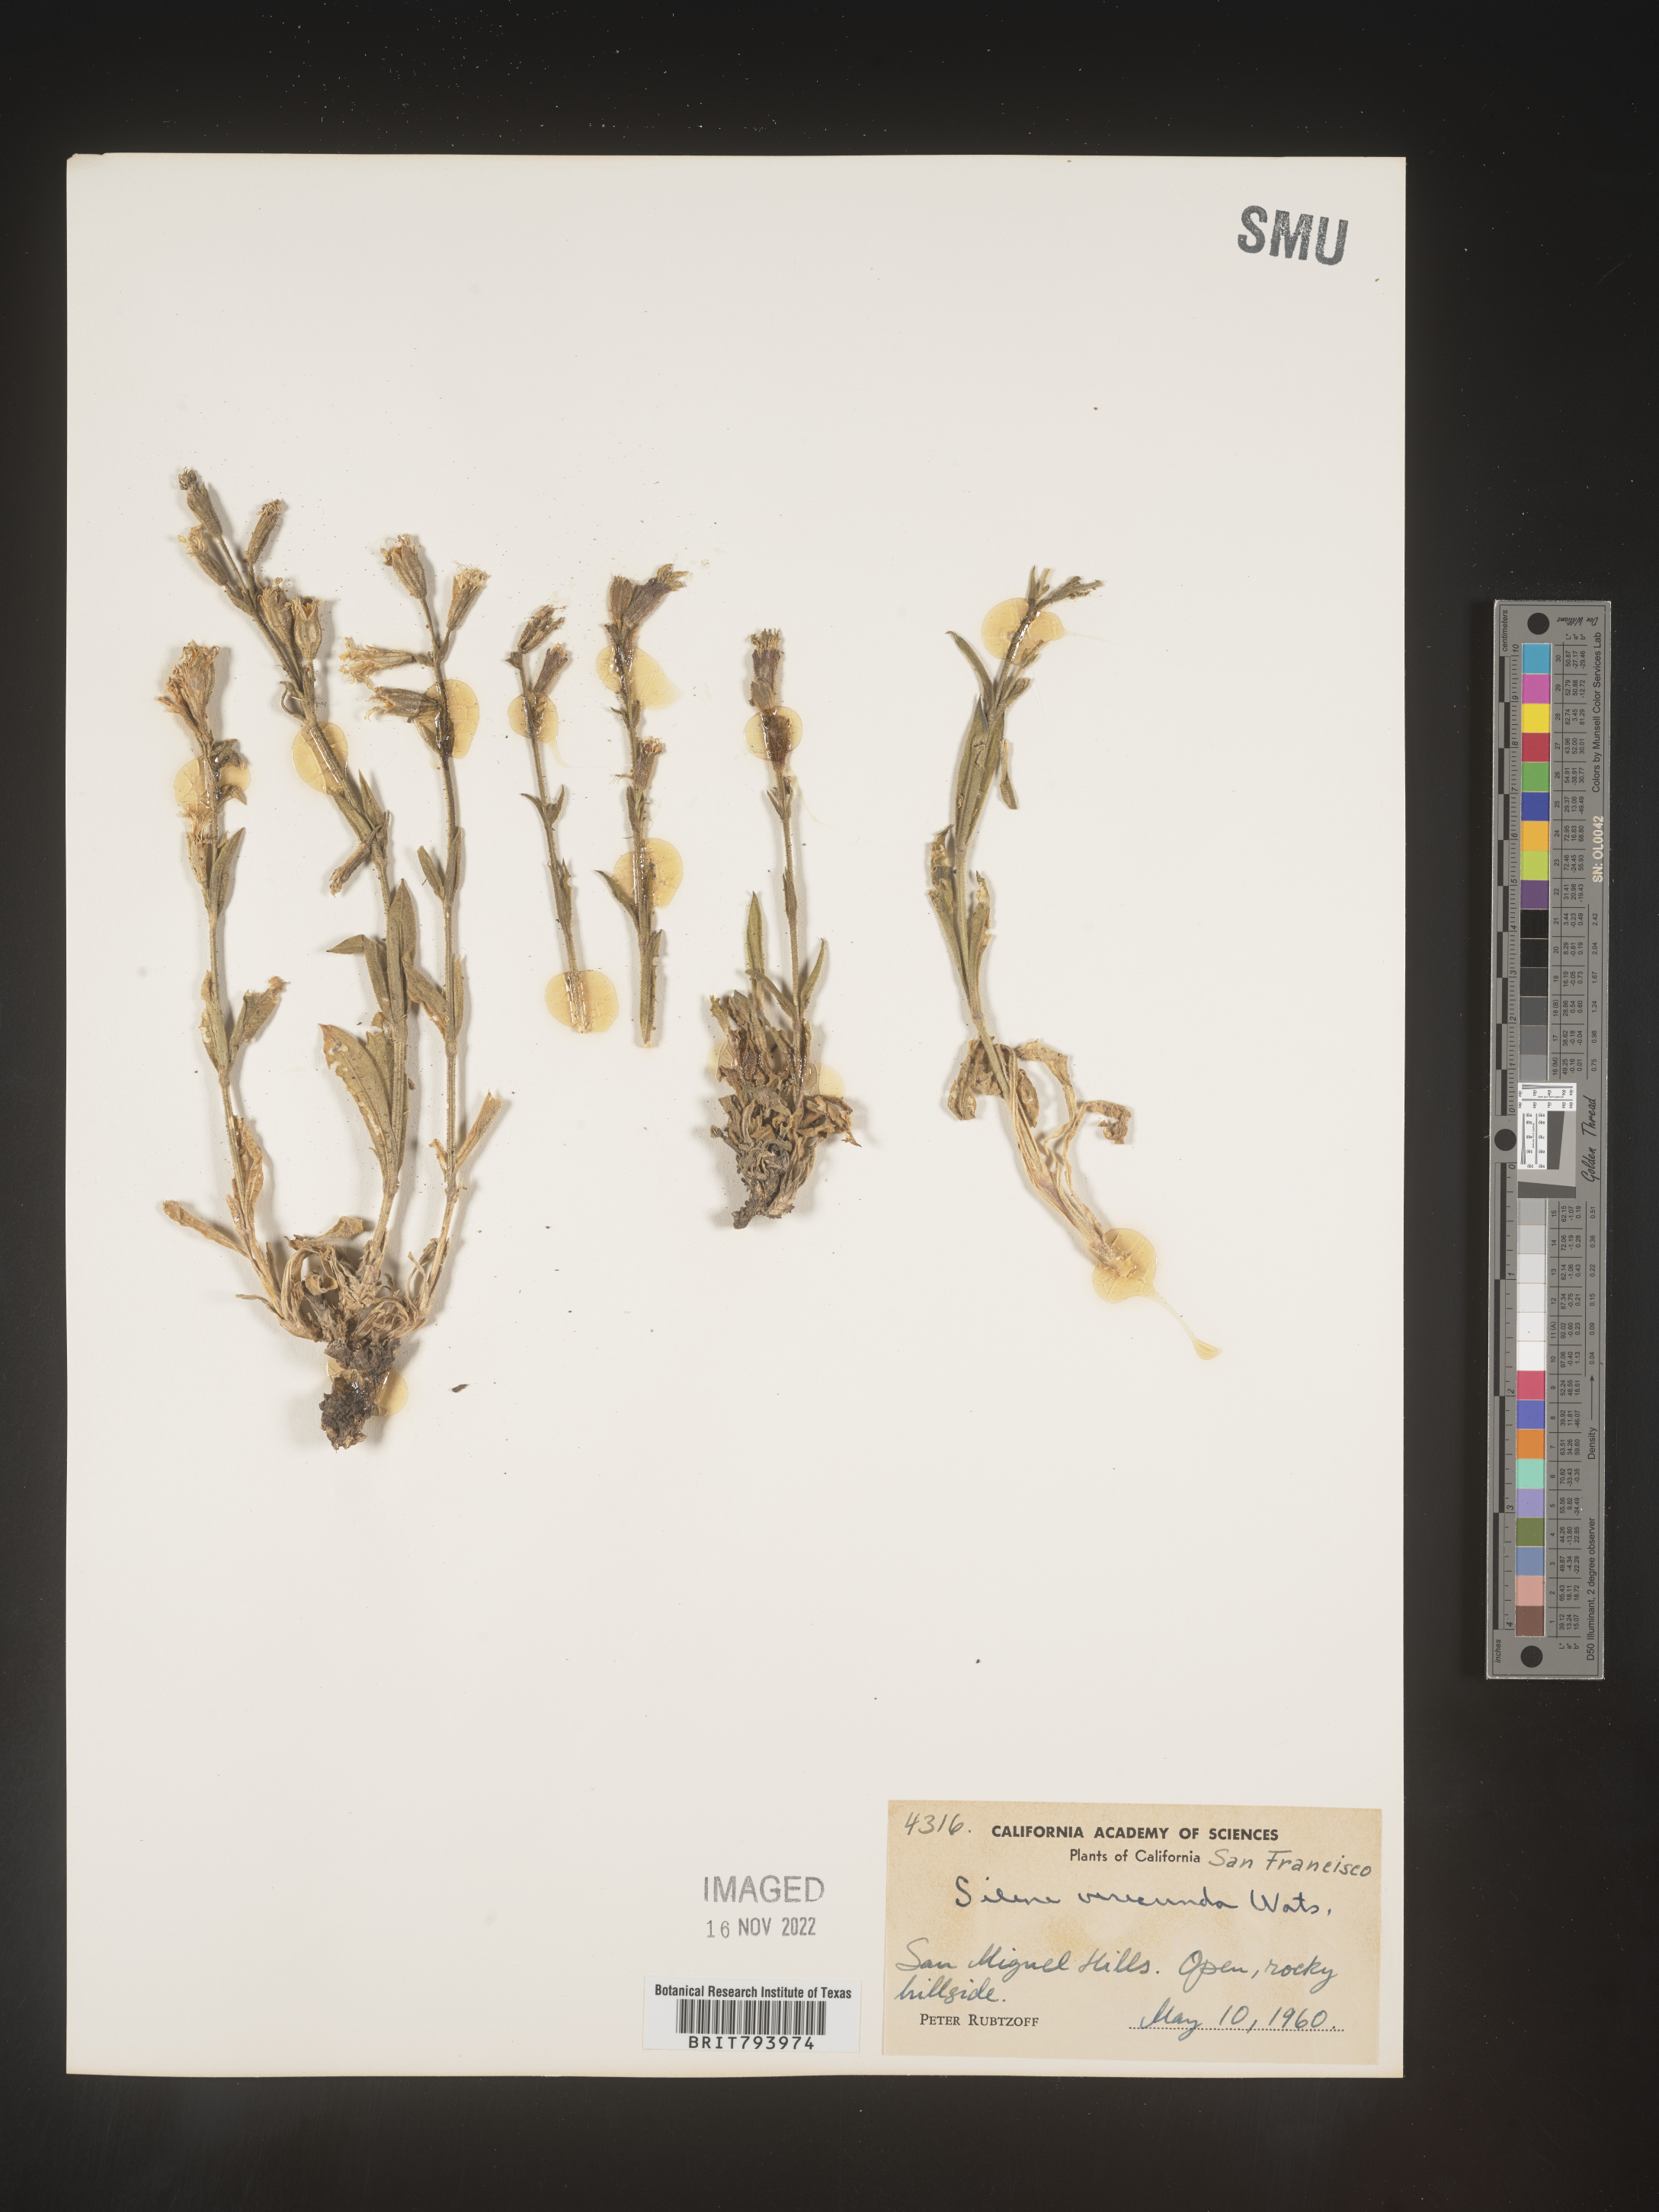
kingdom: Plantae
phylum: Tracheophyta
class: Magnoliopsida
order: Caryophyllales
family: Caryophyllaceae
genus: Silene
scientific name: Silene verecunda
